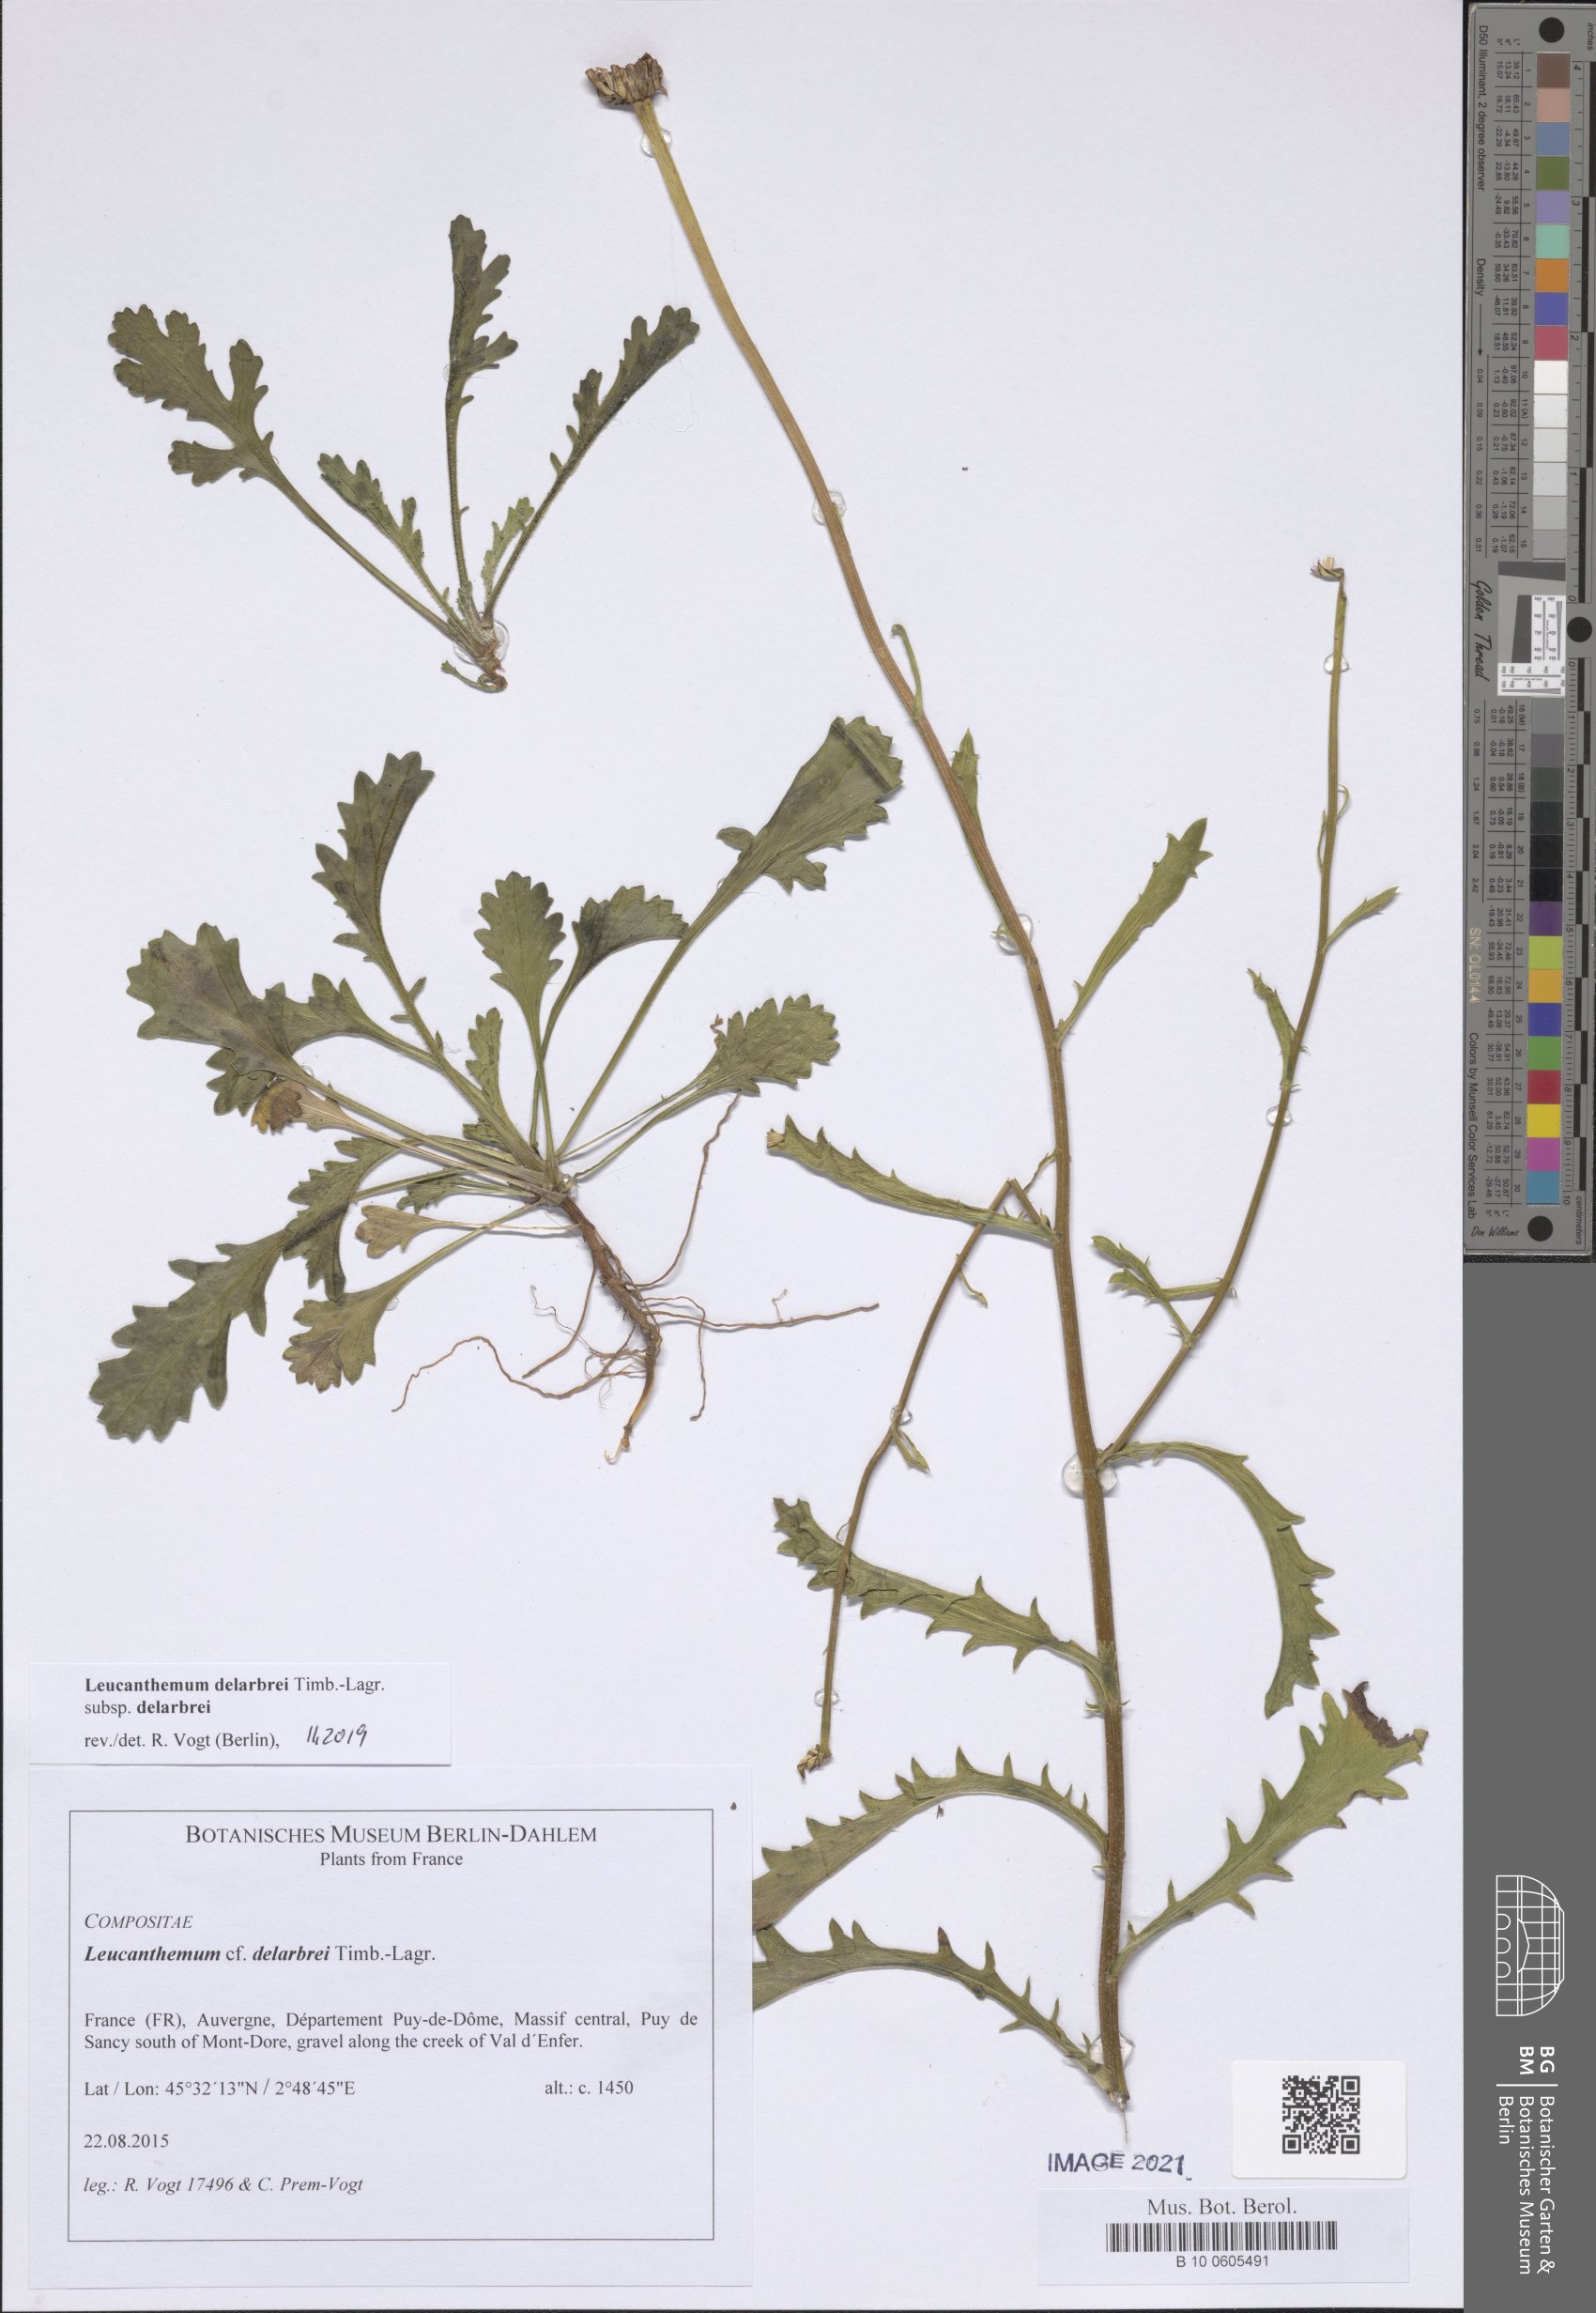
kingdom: Plantae
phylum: Tracheophyta
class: Magnoliopsida
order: Asterales
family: Asteraceae
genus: Leucanthemum
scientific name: Leucanthemum delarbrei
